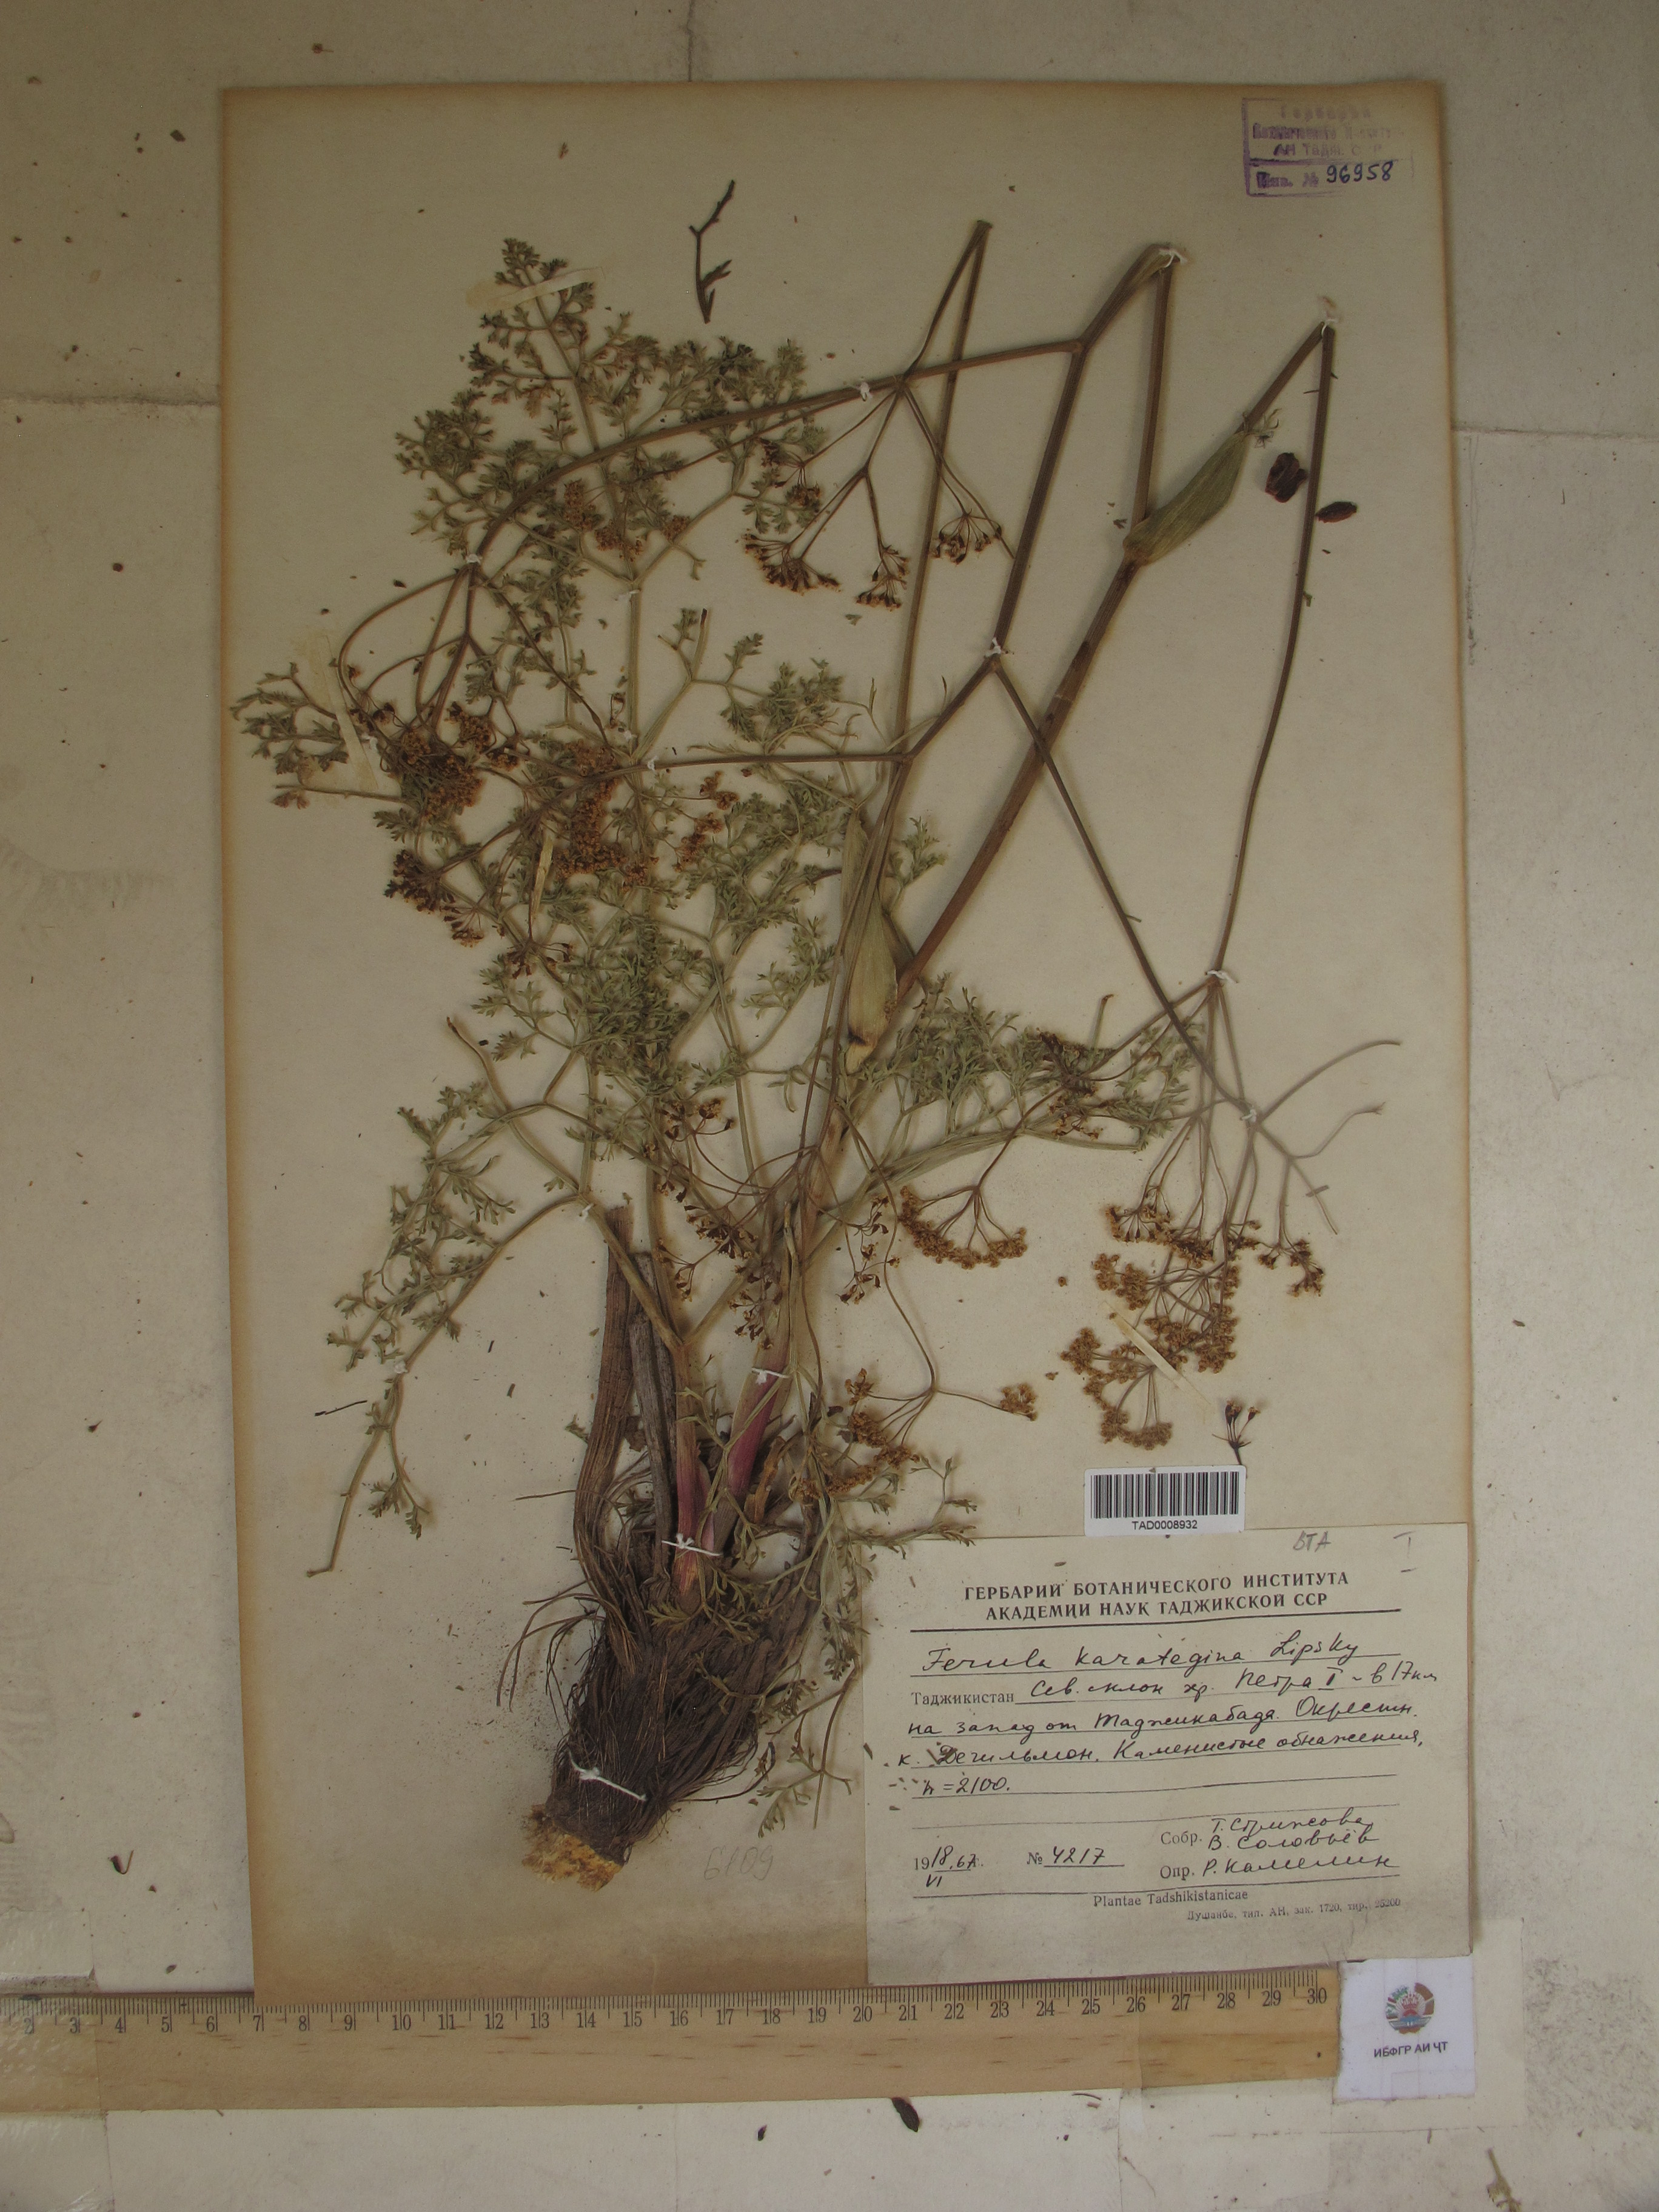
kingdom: Plantae
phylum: Tracheophyta
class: Magnoliopsida
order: Apiales
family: Apiaceae
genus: Ferula
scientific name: Ferula karategina
